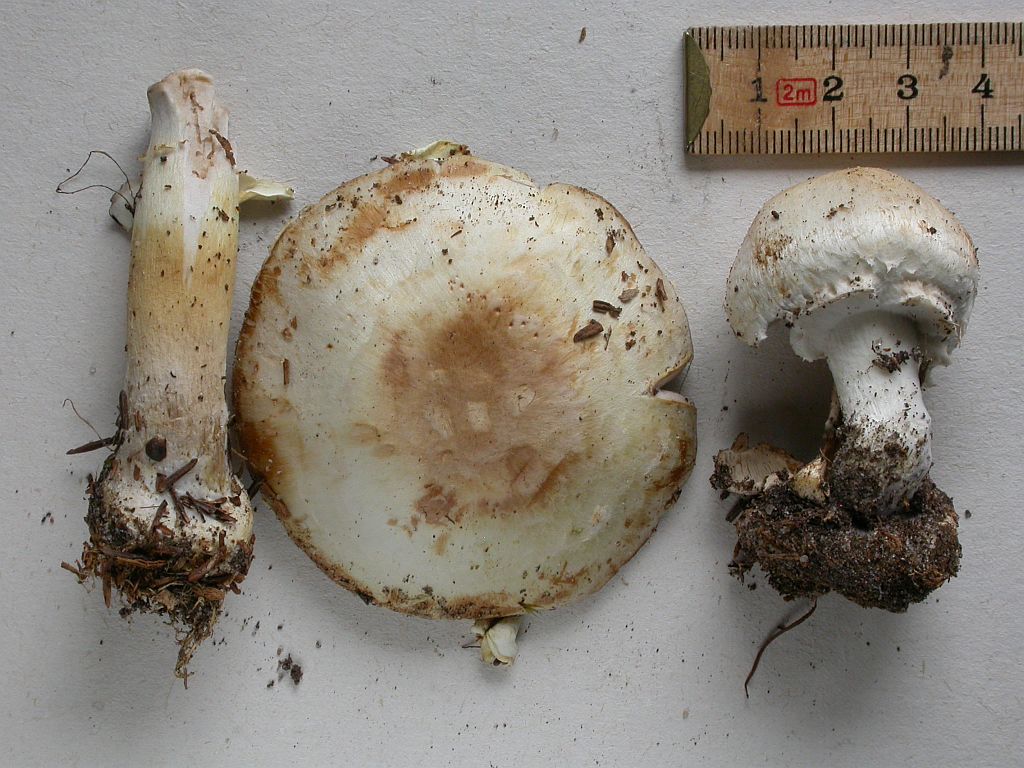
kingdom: Fungi
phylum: Basidiomycota
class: Agaricomycetes
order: Agaricales
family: Agaricaceae
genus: Agaricus
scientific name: Agaricus sylvicola
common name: skiveknoldet champignon
